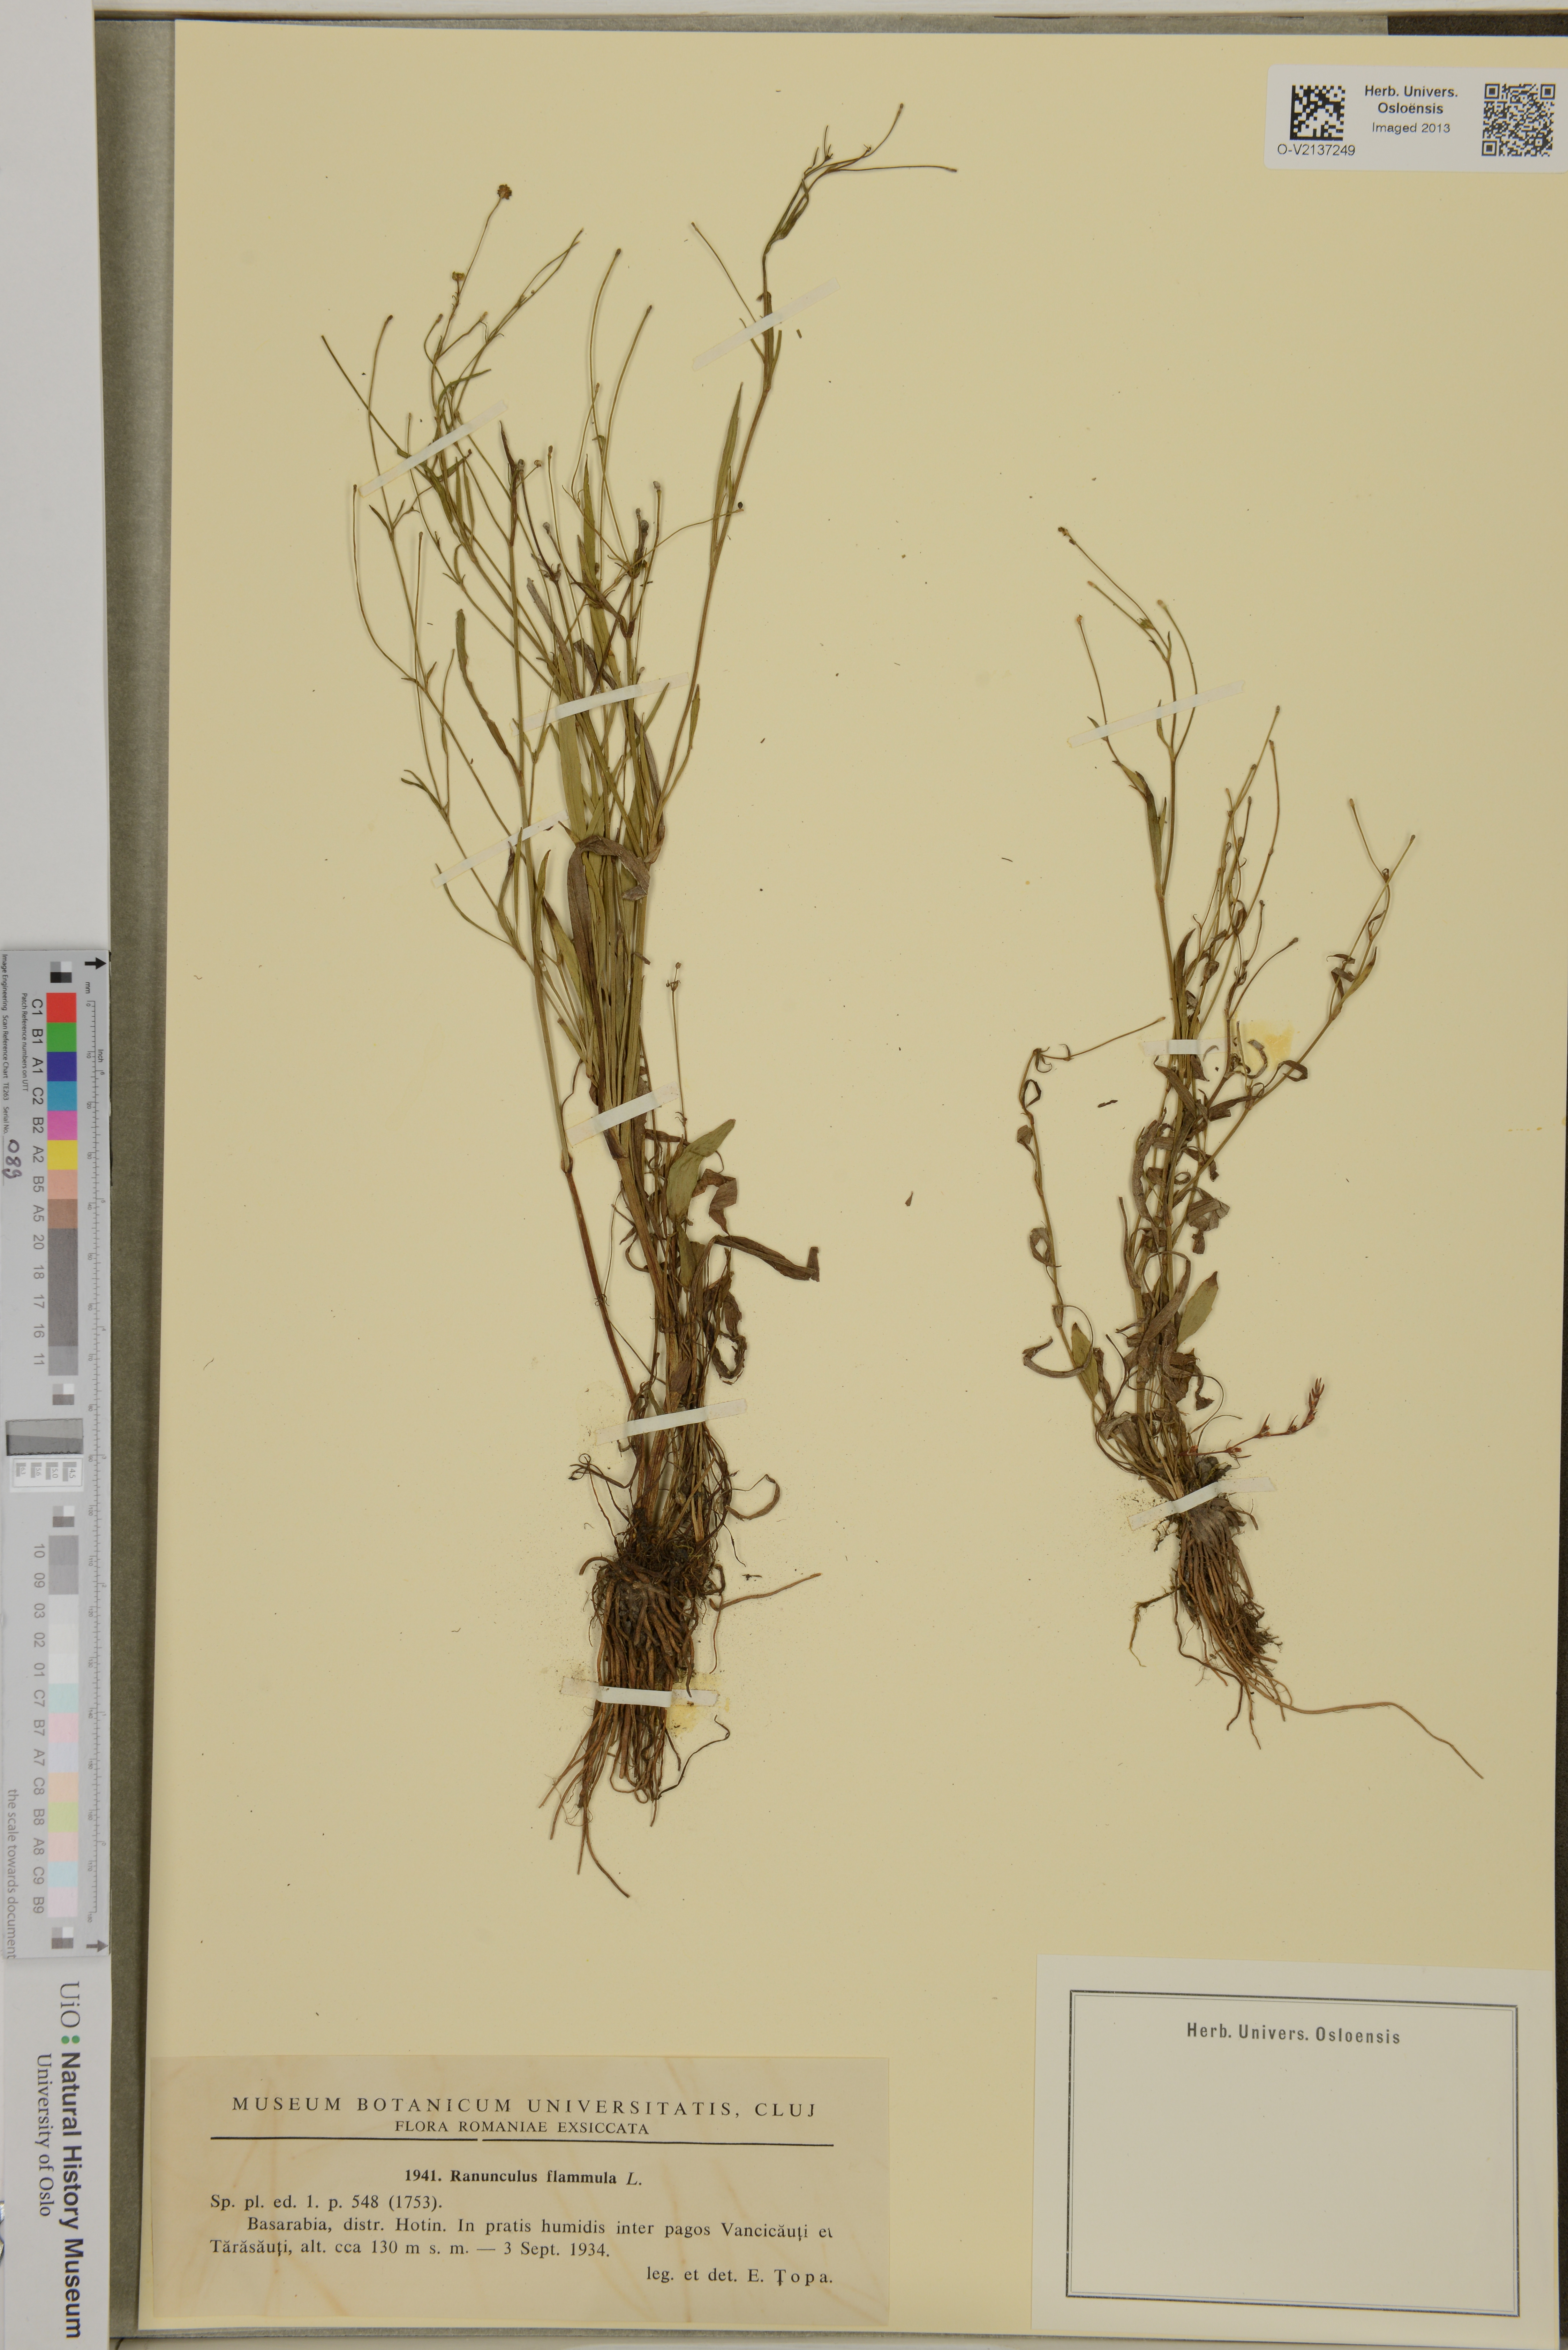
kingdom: Plantae
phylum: Tracheophyta
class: Magnoliopsida
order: Ranunculales
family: Ranunculaceae
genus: Ranunculus
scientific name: Ranunculus flammula
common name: Lesser spearwort
